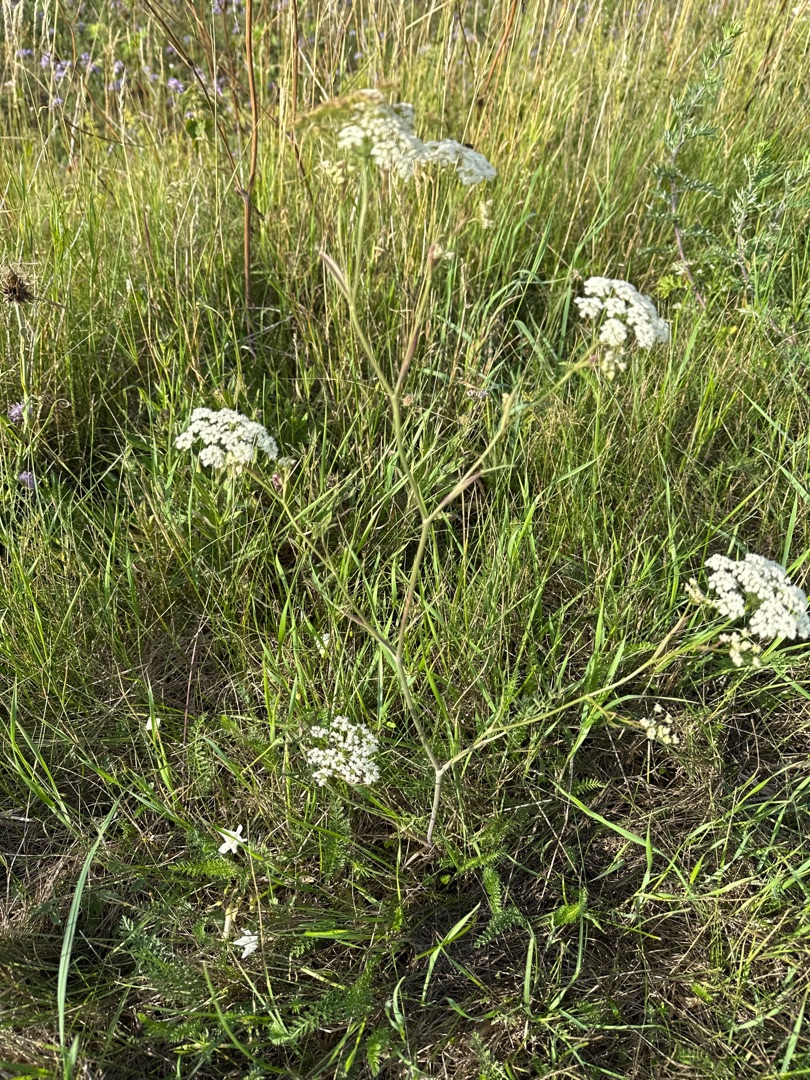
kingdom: Plantae
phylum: Tracheophyta
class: Magnoliopsida
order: Apiales
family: Apiaceae
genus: Pimpinella
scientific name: Pimpinella saxifraga
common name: Almindelig pimpinelle
